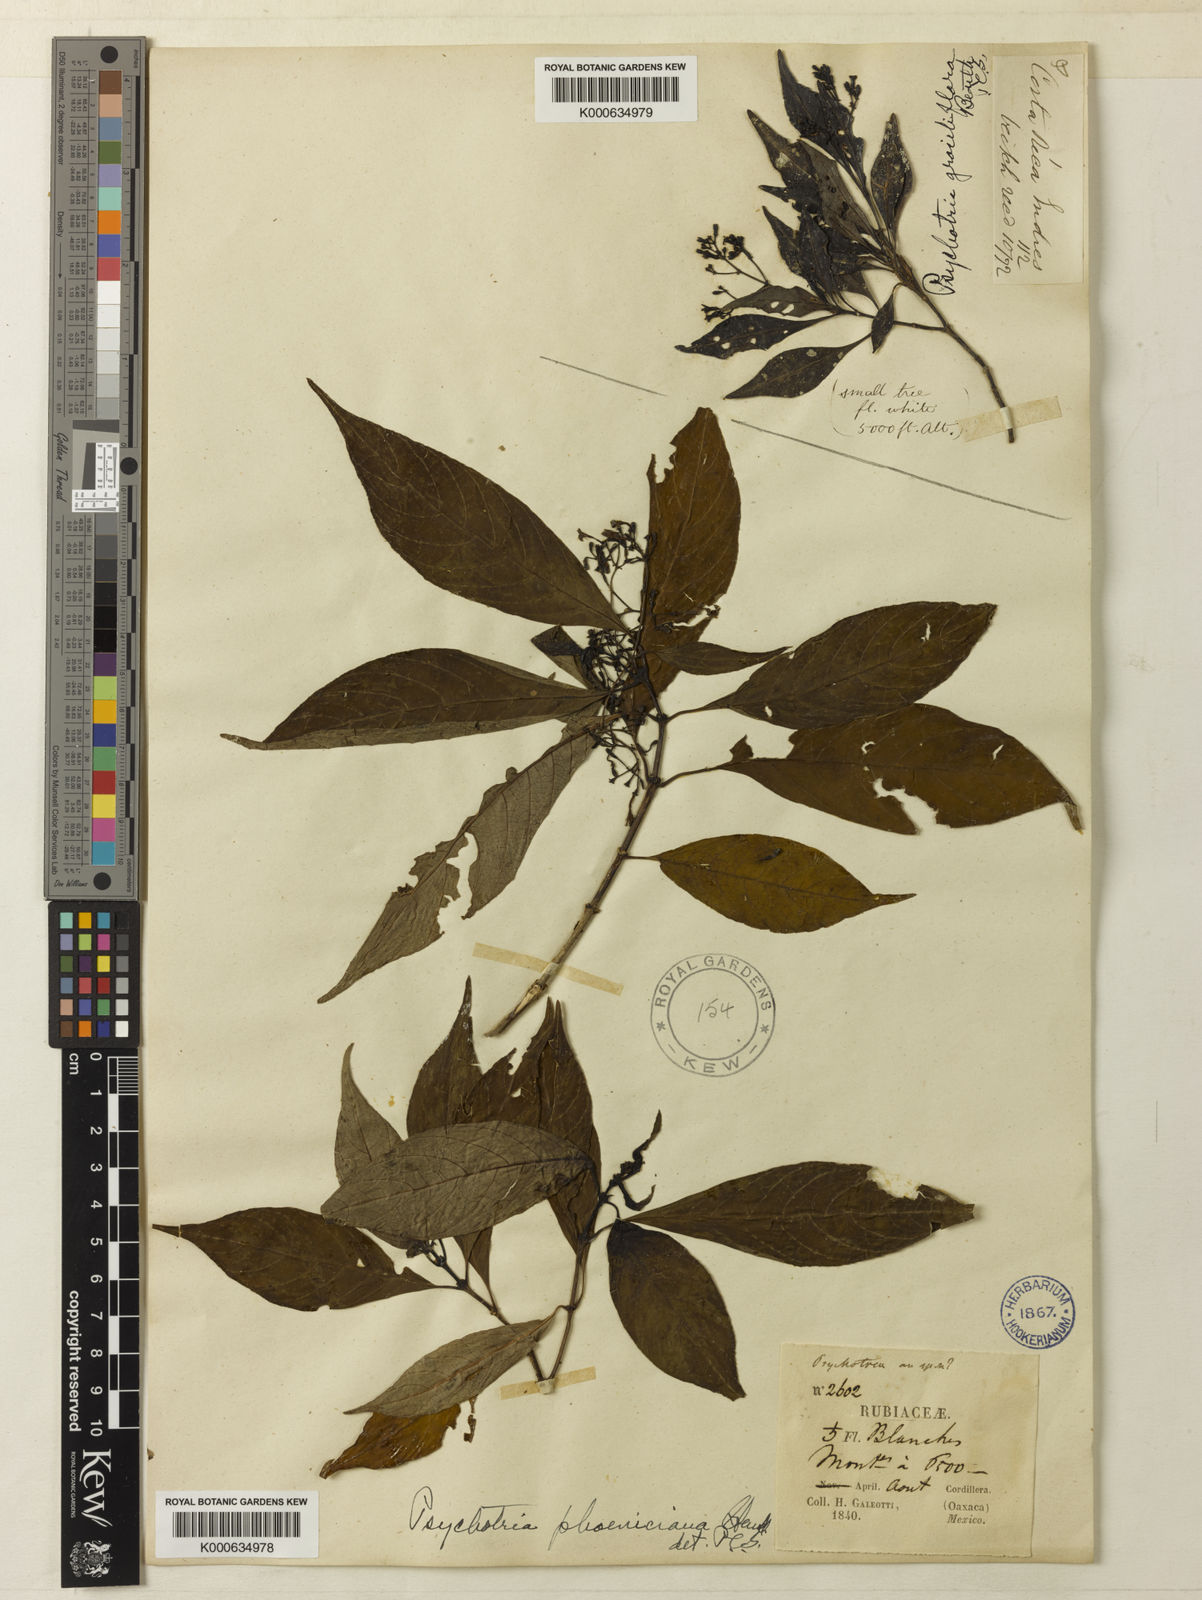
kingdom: Plantae
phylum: Tracheophyta
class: Magnoliopsida
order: Gentianales
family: Rubiaceae
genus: Palicourea
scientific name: Palicourea galeottiana
